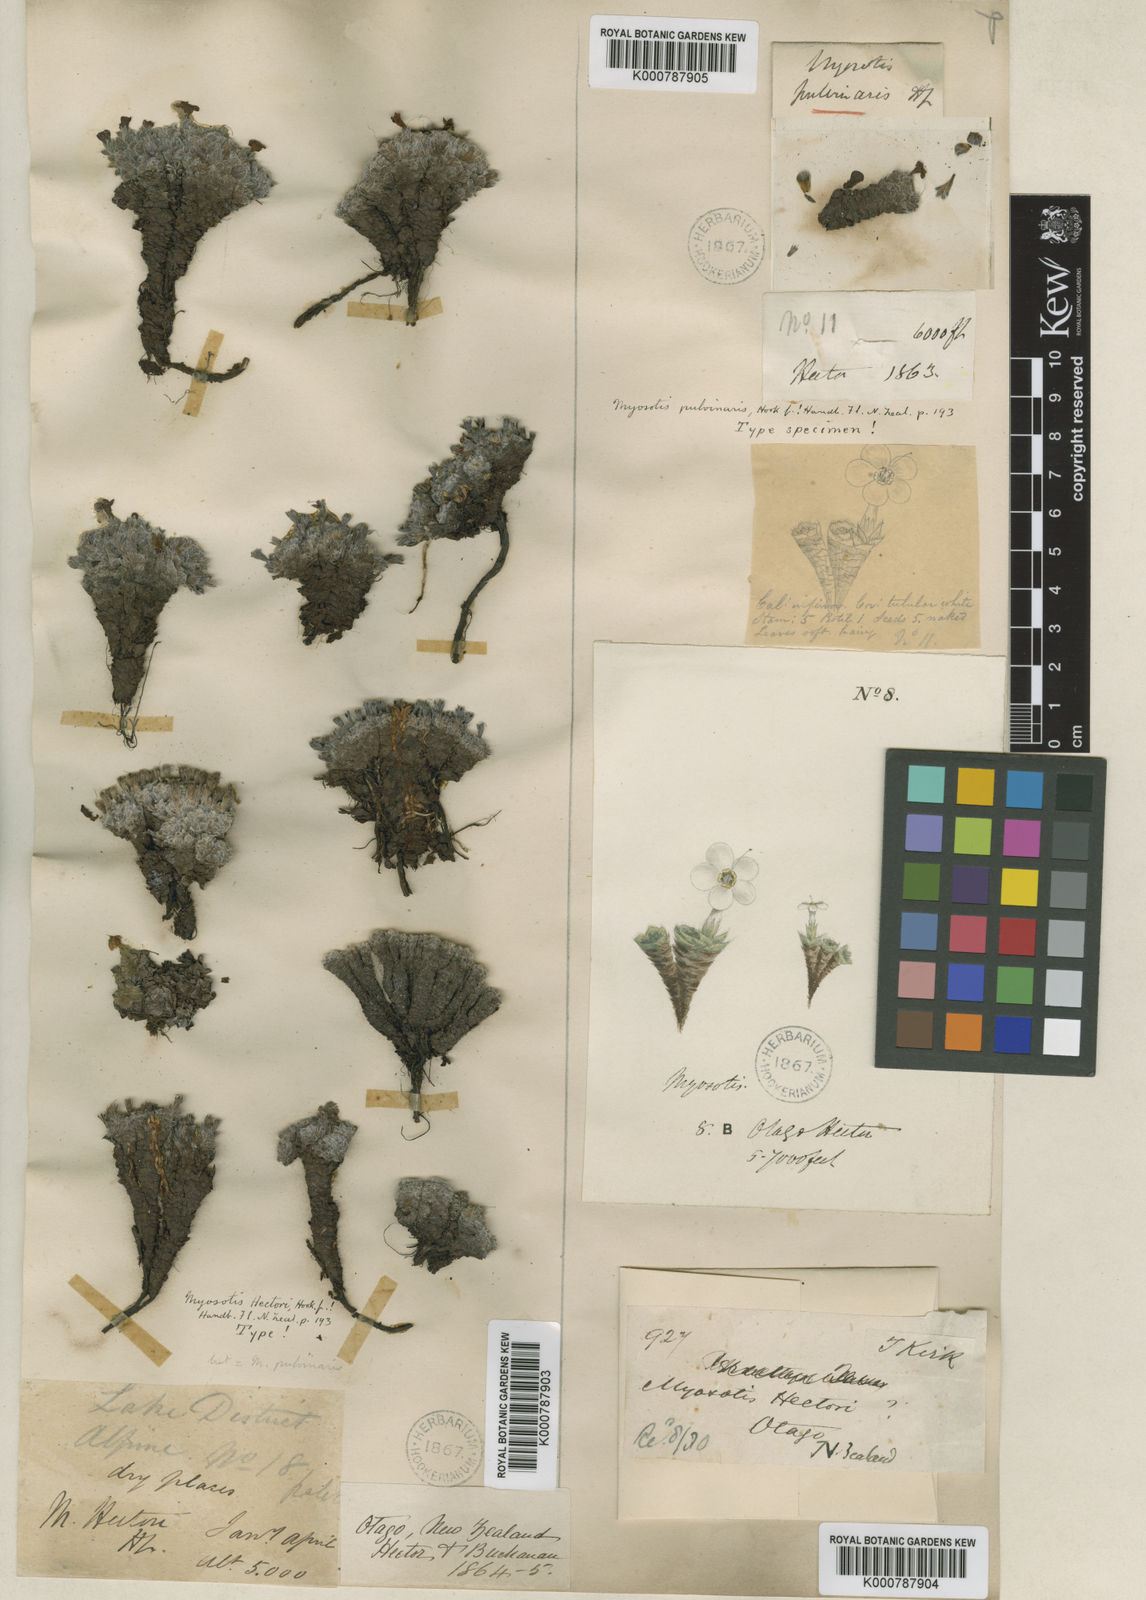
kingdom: Plantae
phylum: Tracheophyta
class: Magnoliopsida
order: Boraginales
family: Boraginaceae
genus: Myosotis
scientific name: Myosotis pulvinaris
